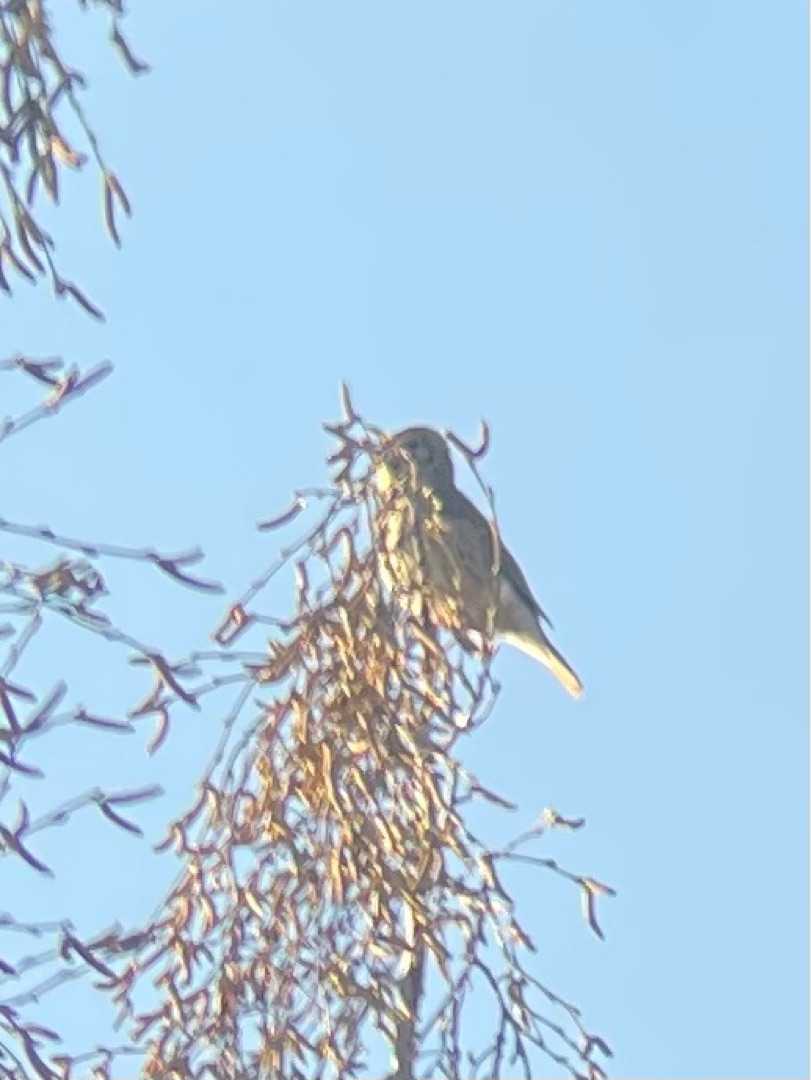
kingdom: Animalia
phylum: Chordata
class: Aves
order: Passeriformes
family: Turdidae
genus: Turdus
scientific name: Turdus philomelos
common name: Sangdrossel
